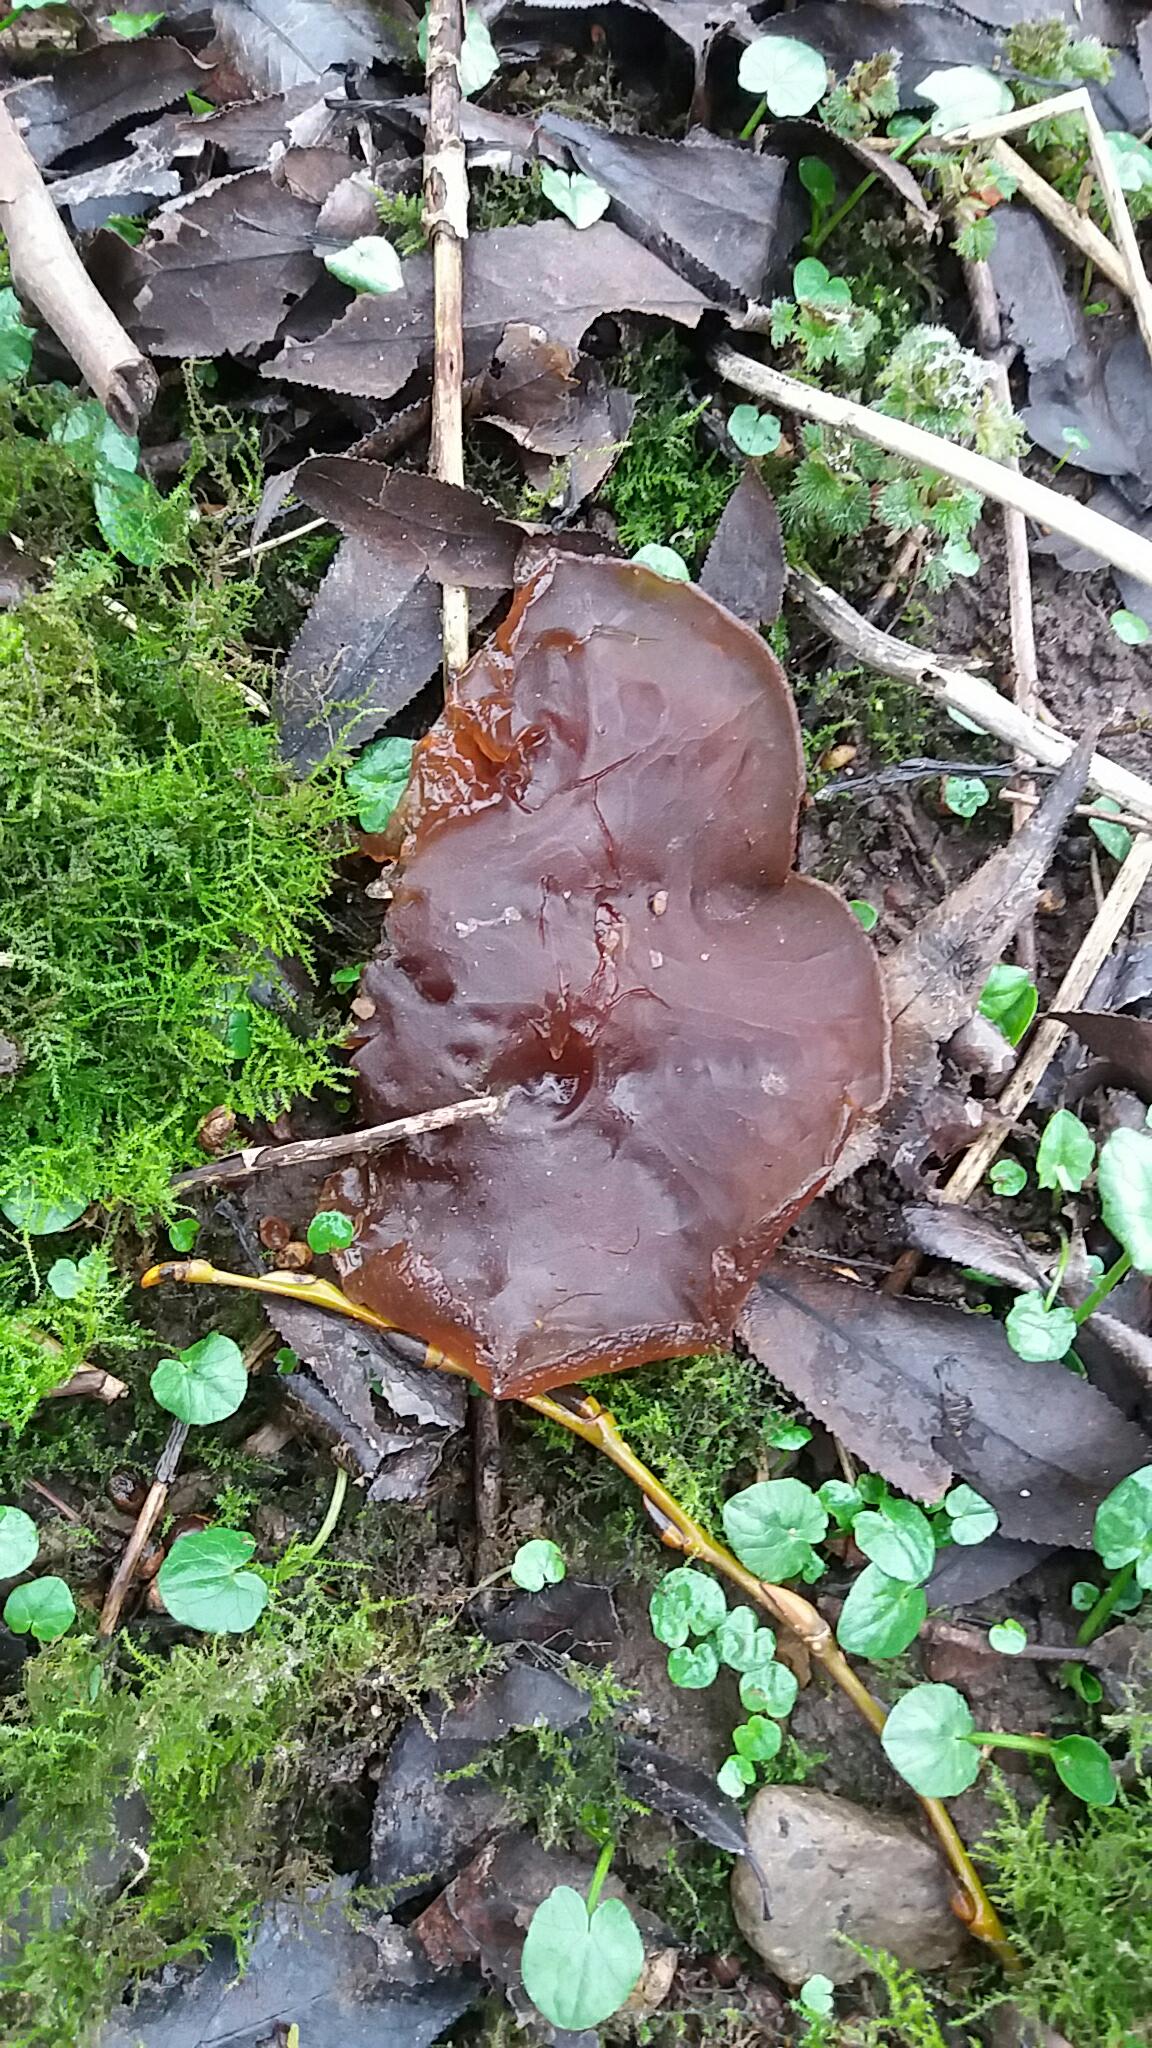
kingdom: Fungi
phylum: Basidiomycota
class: Agaricomycetes
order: Auriculariales
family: Auriculariaceae
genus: Auricularia
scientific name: Auricularia auricula-judae
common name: almindelig judasøre
